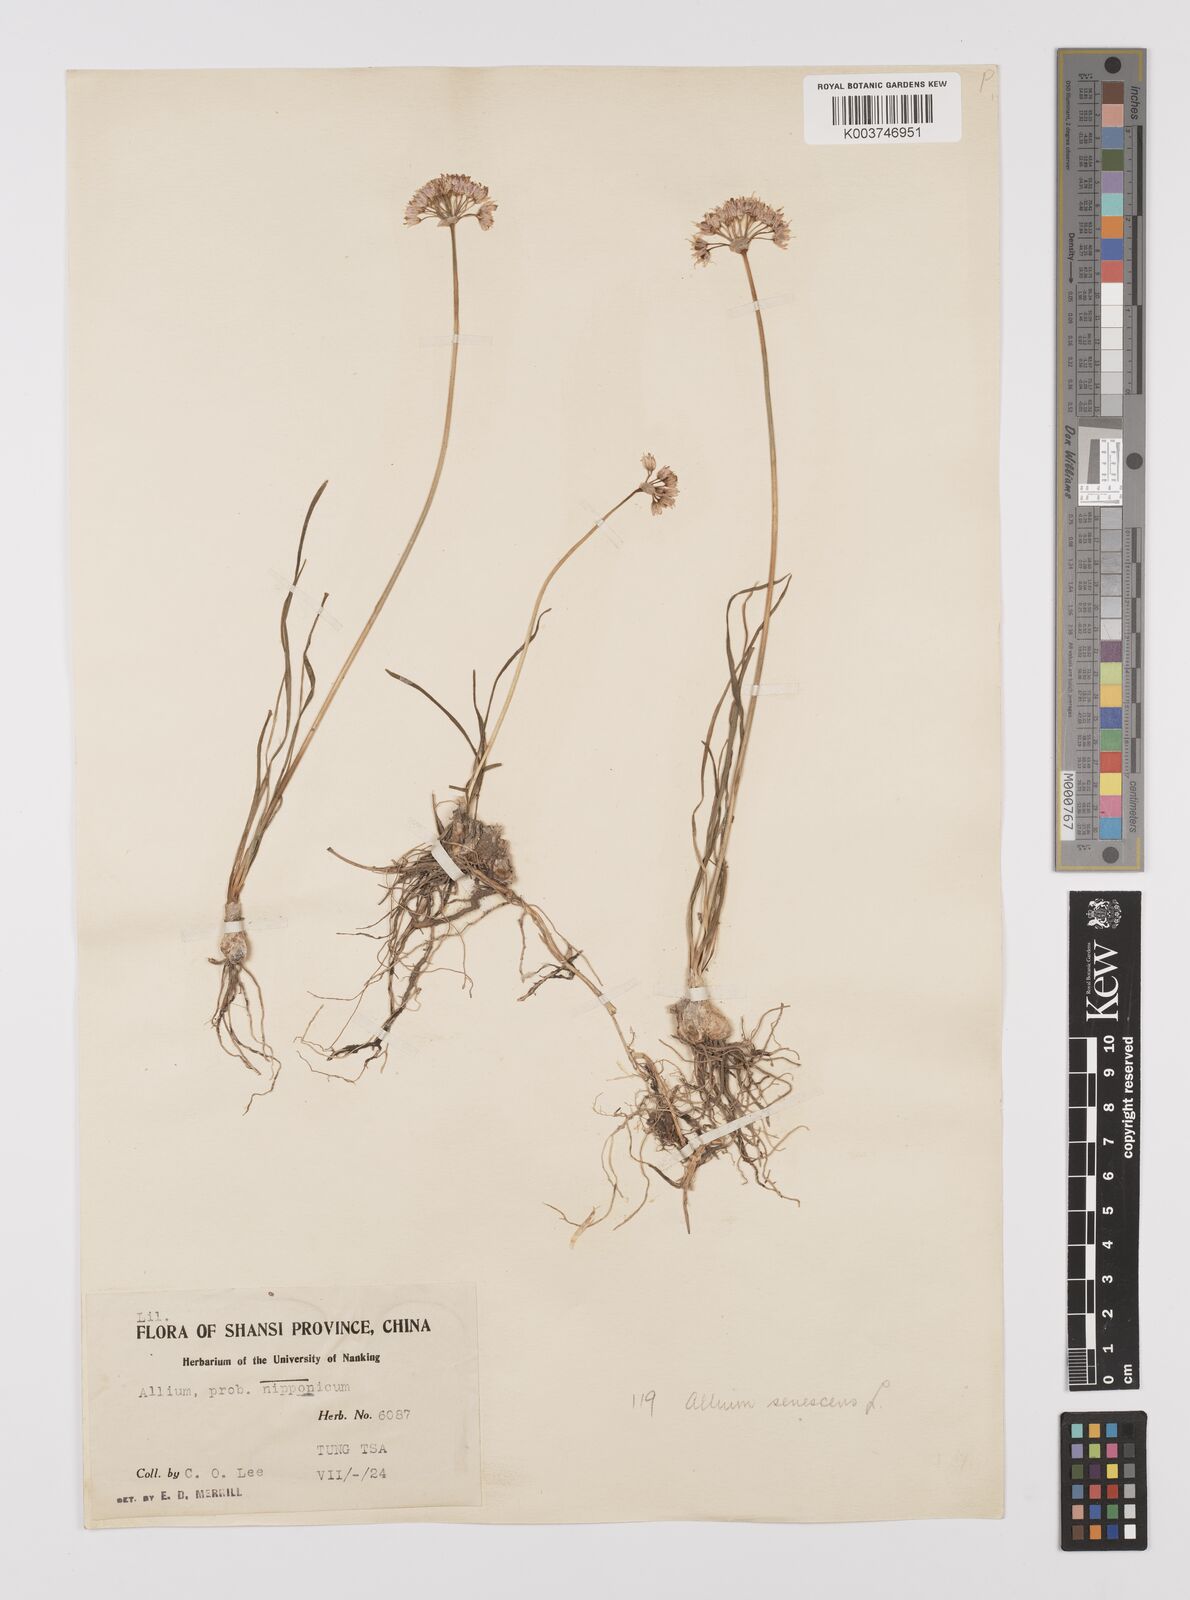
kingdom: Plantae
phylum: Tracheophyta
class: Liliopsida
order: Asparagales
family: Amaryllidaceae
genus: Allium
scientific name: Allium
